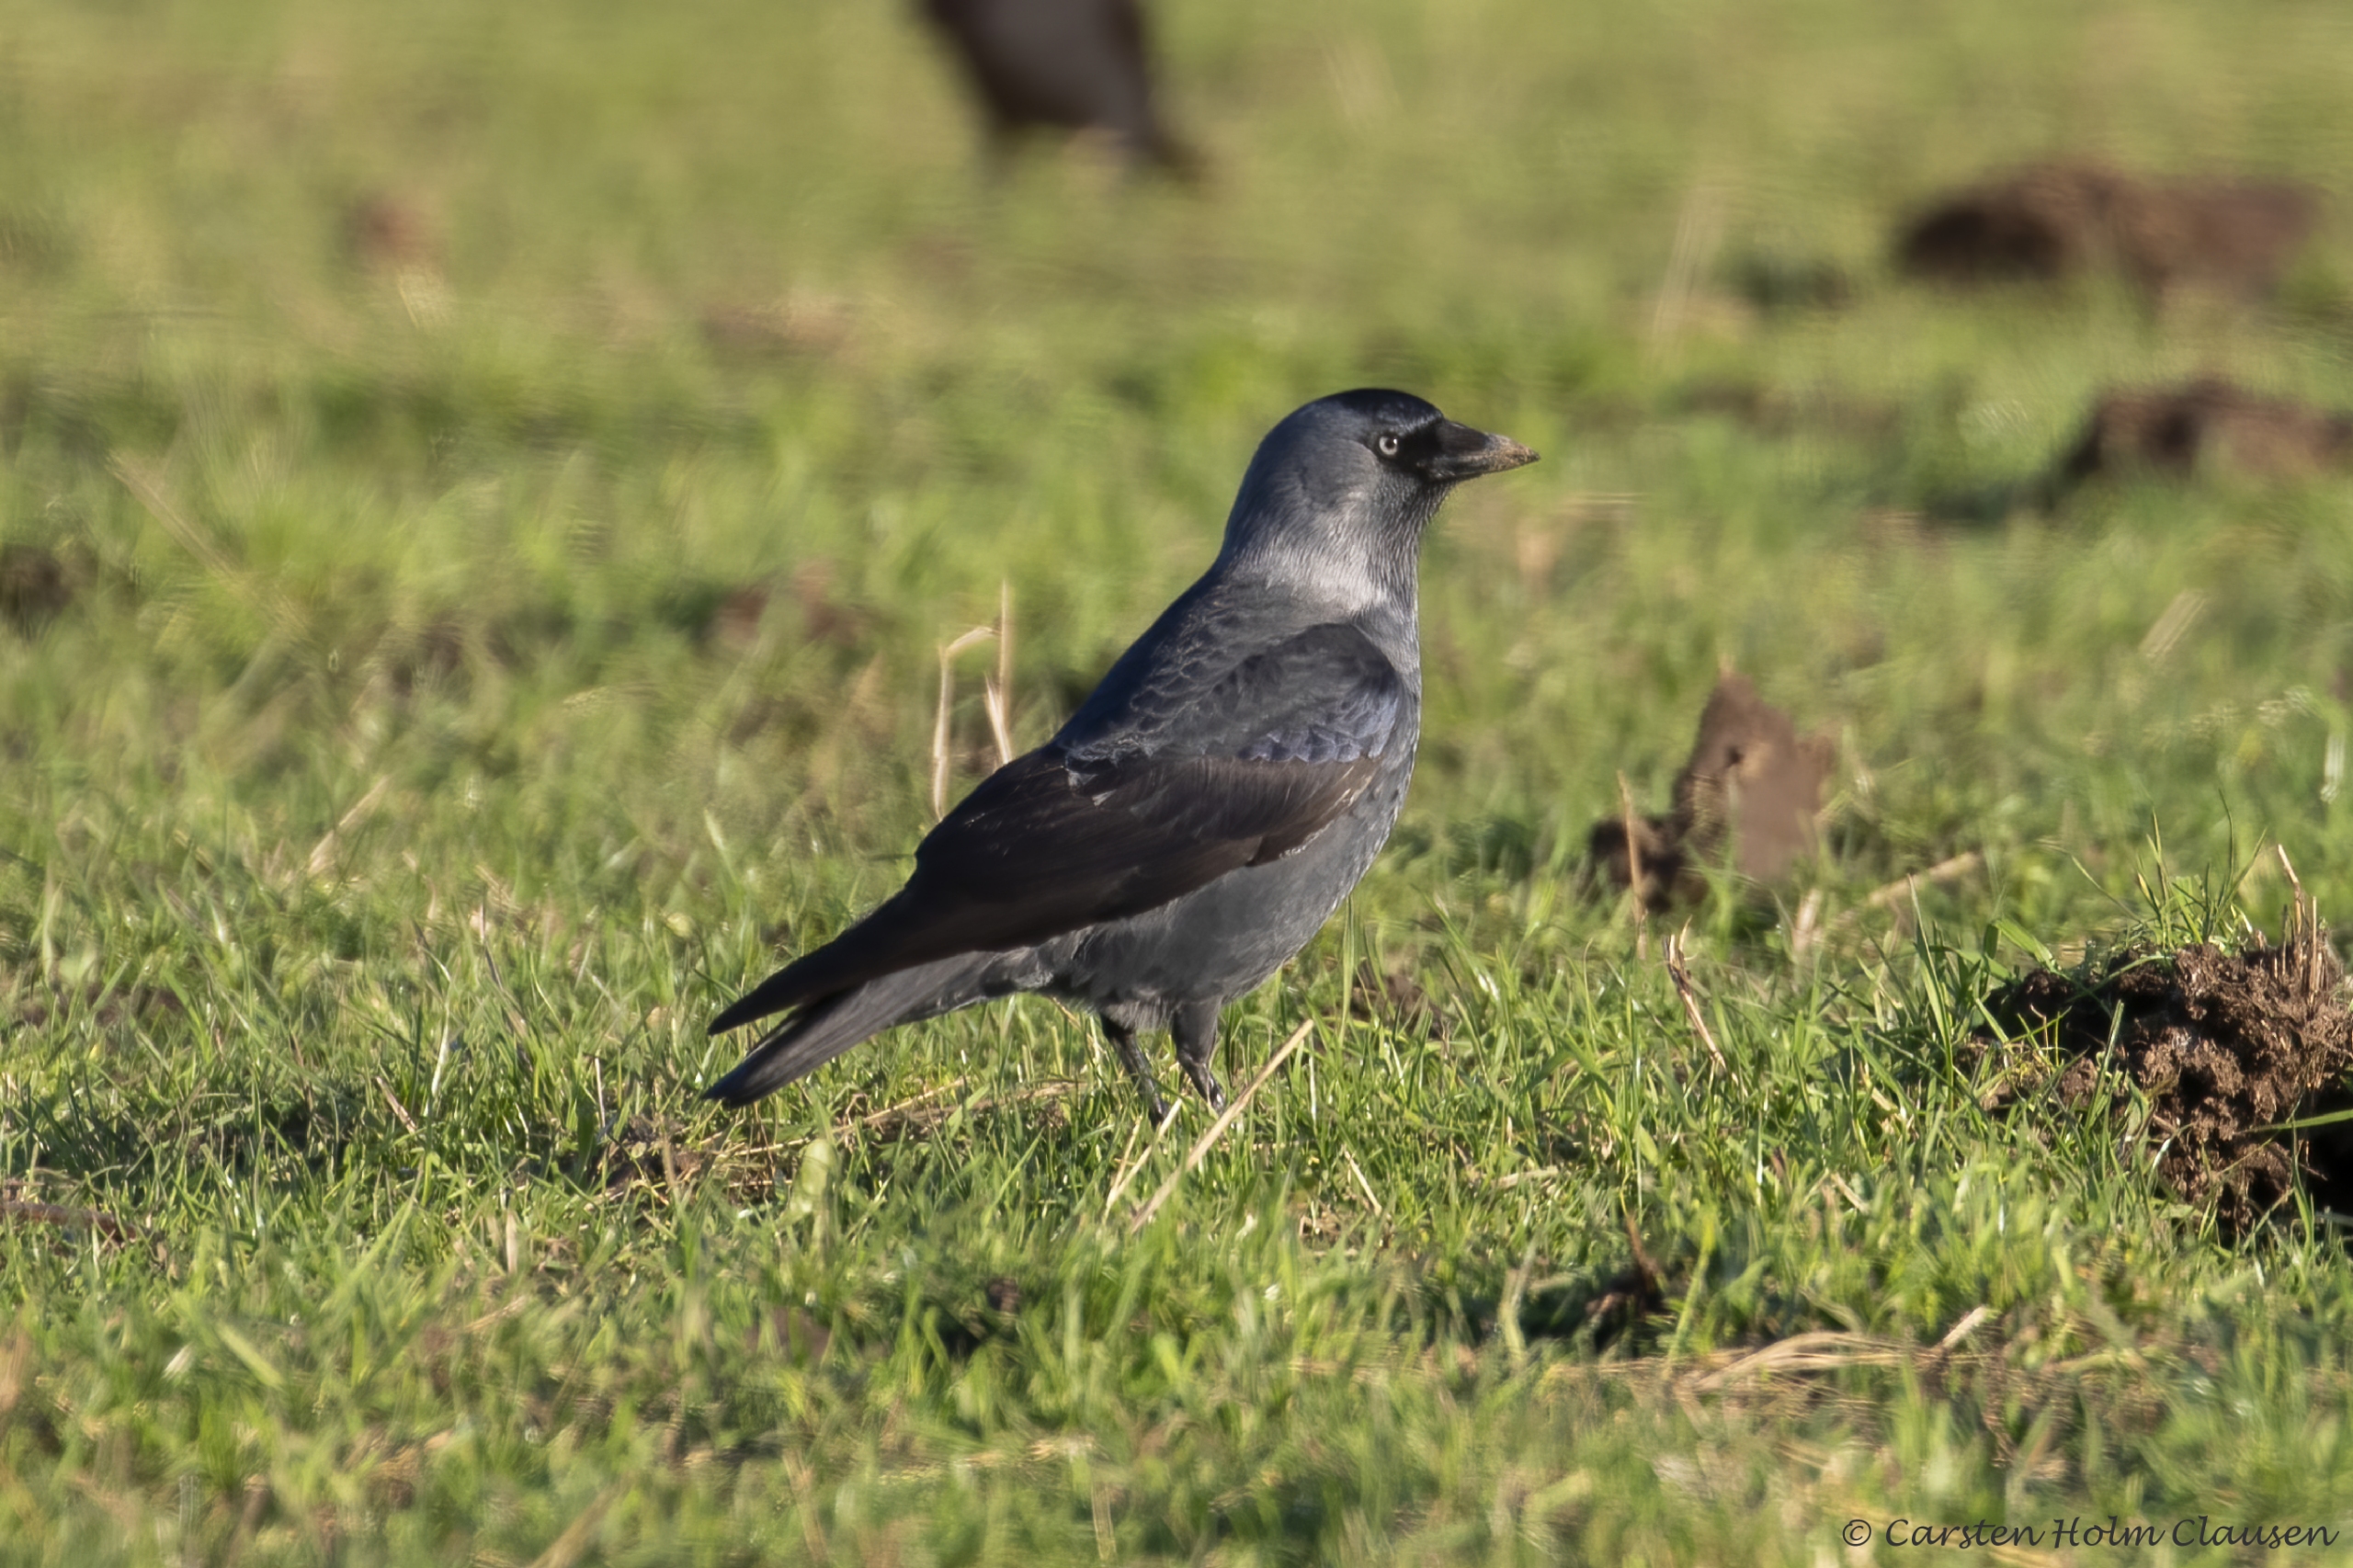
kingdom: Animalia
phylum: Chordata
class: Aves
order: Passeriformes
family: Corvidae
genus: Coloeus
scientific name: Coloeus monedula
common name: Allike
